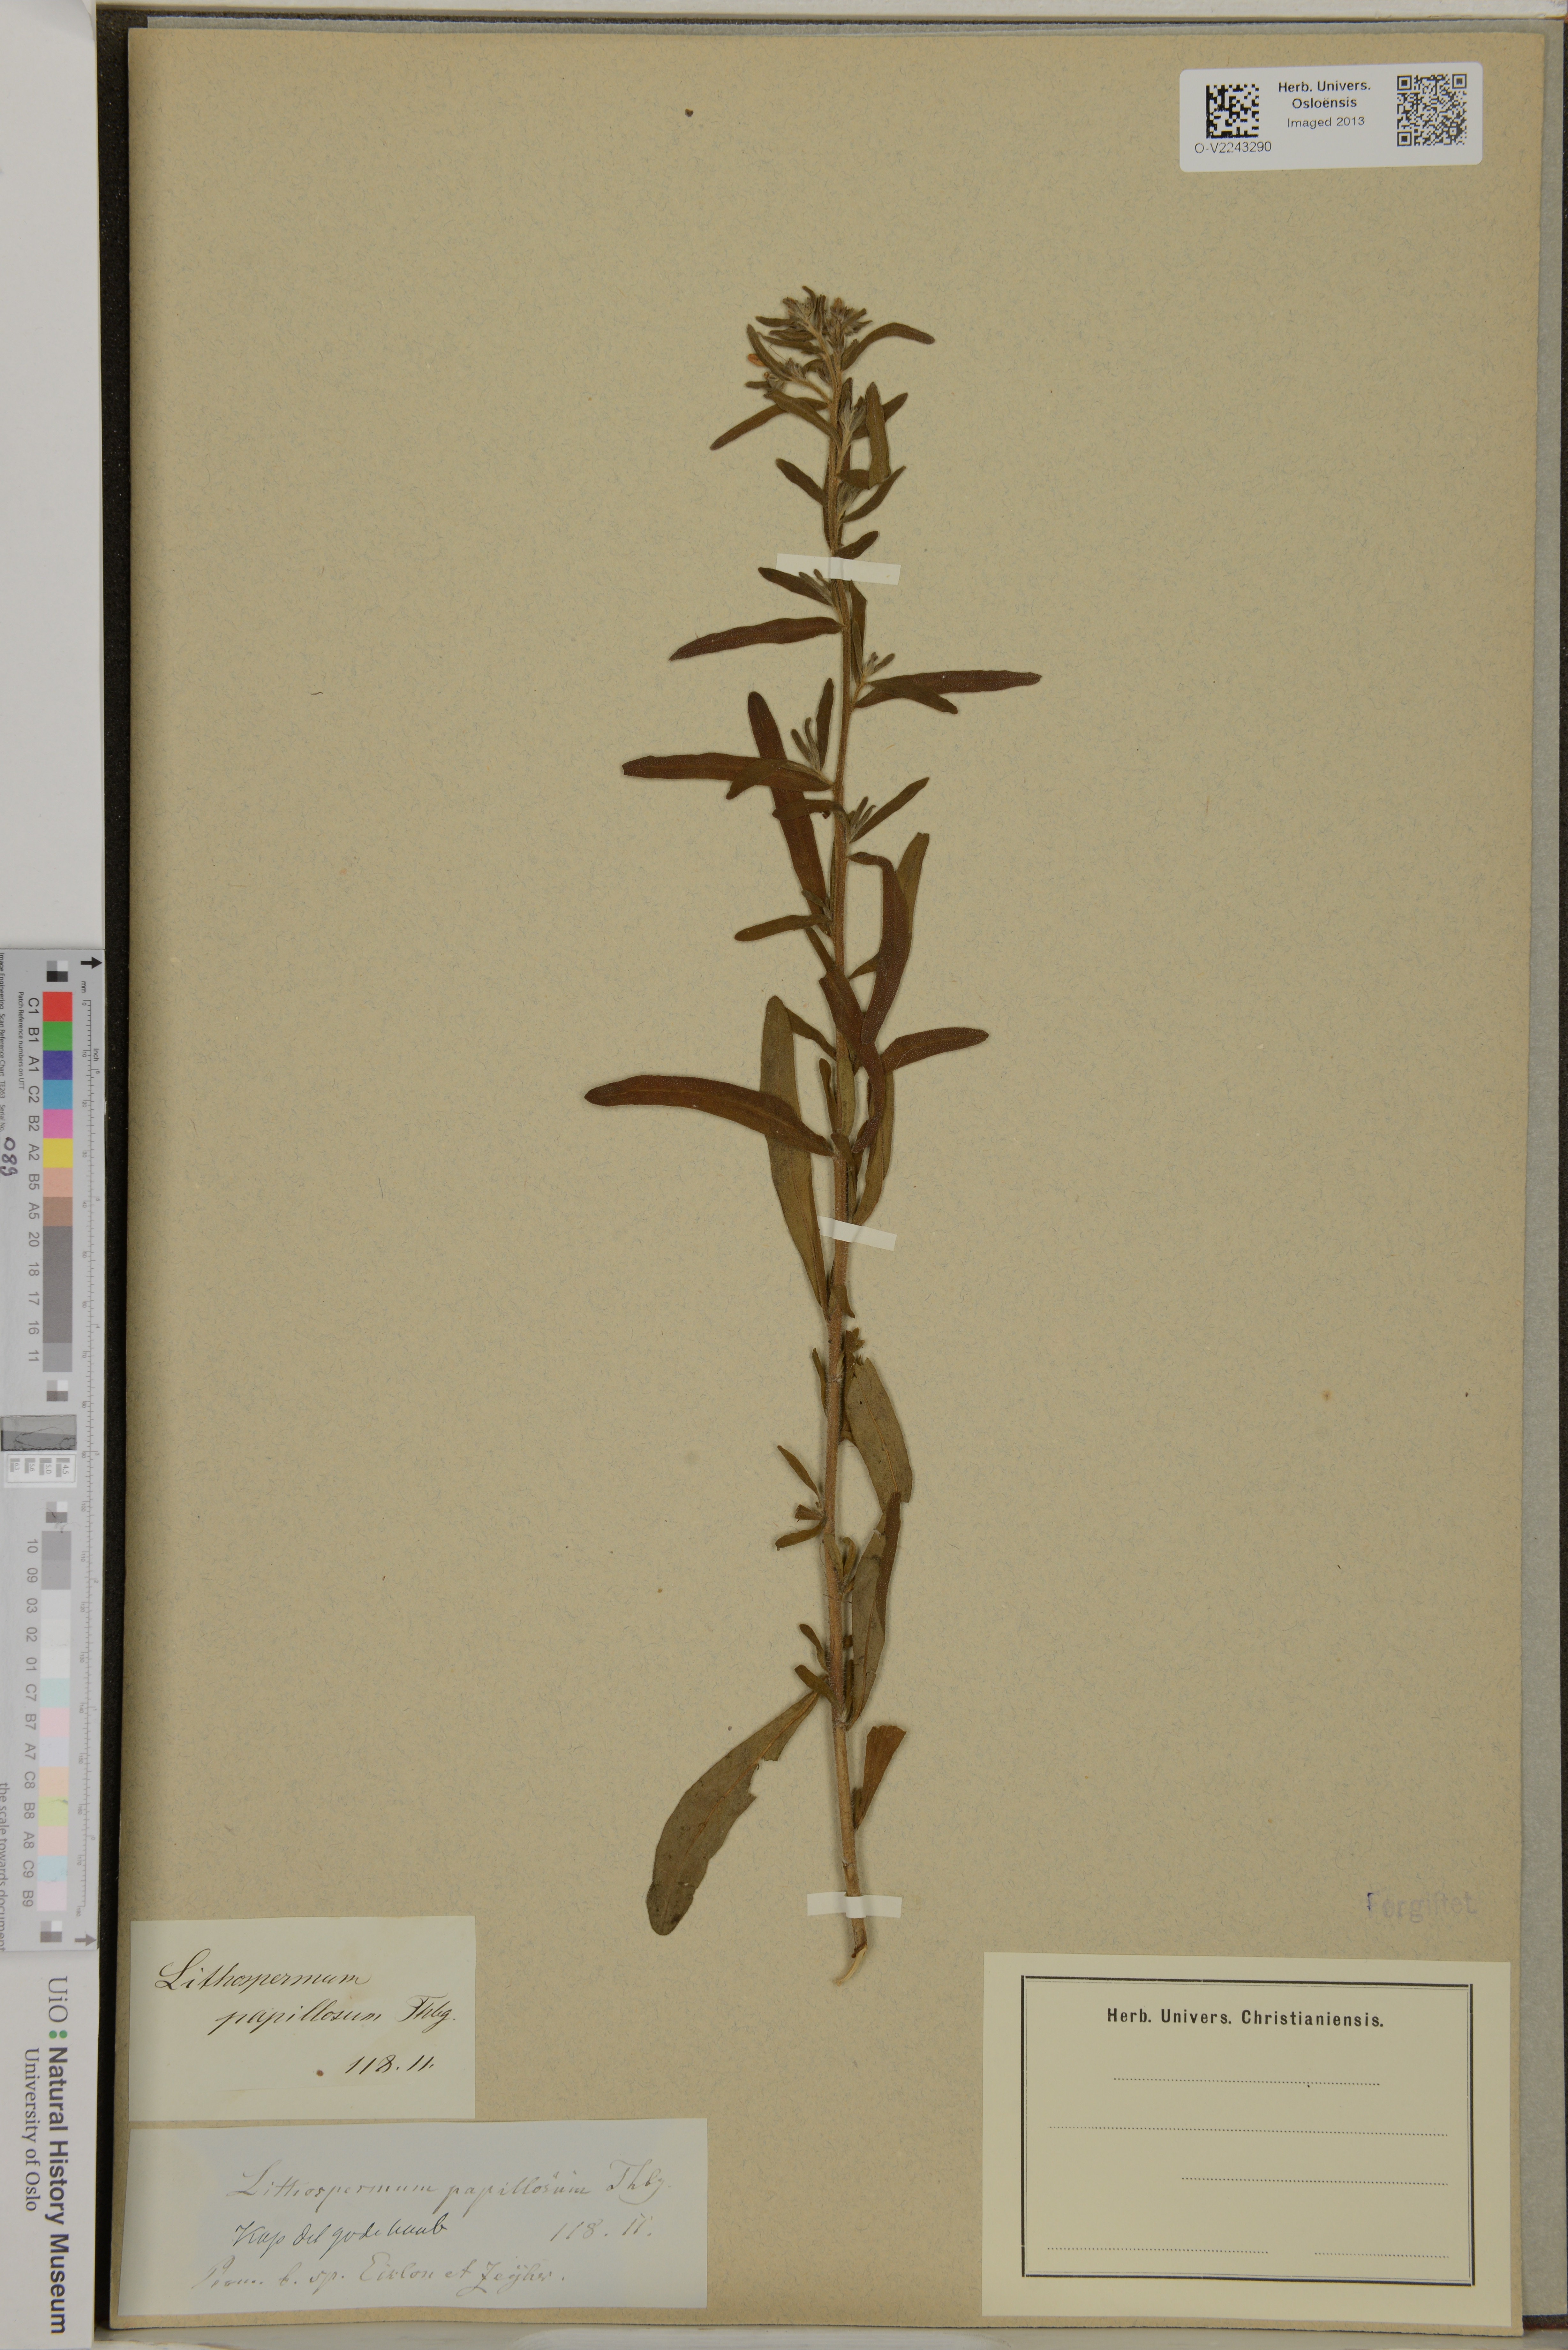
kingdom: Plantae
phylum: Tracheophyta
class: Magnoliopsida
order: Boraginales
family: Boraginaceae
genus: Lithospermum
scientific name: Lithospermum papillosum
